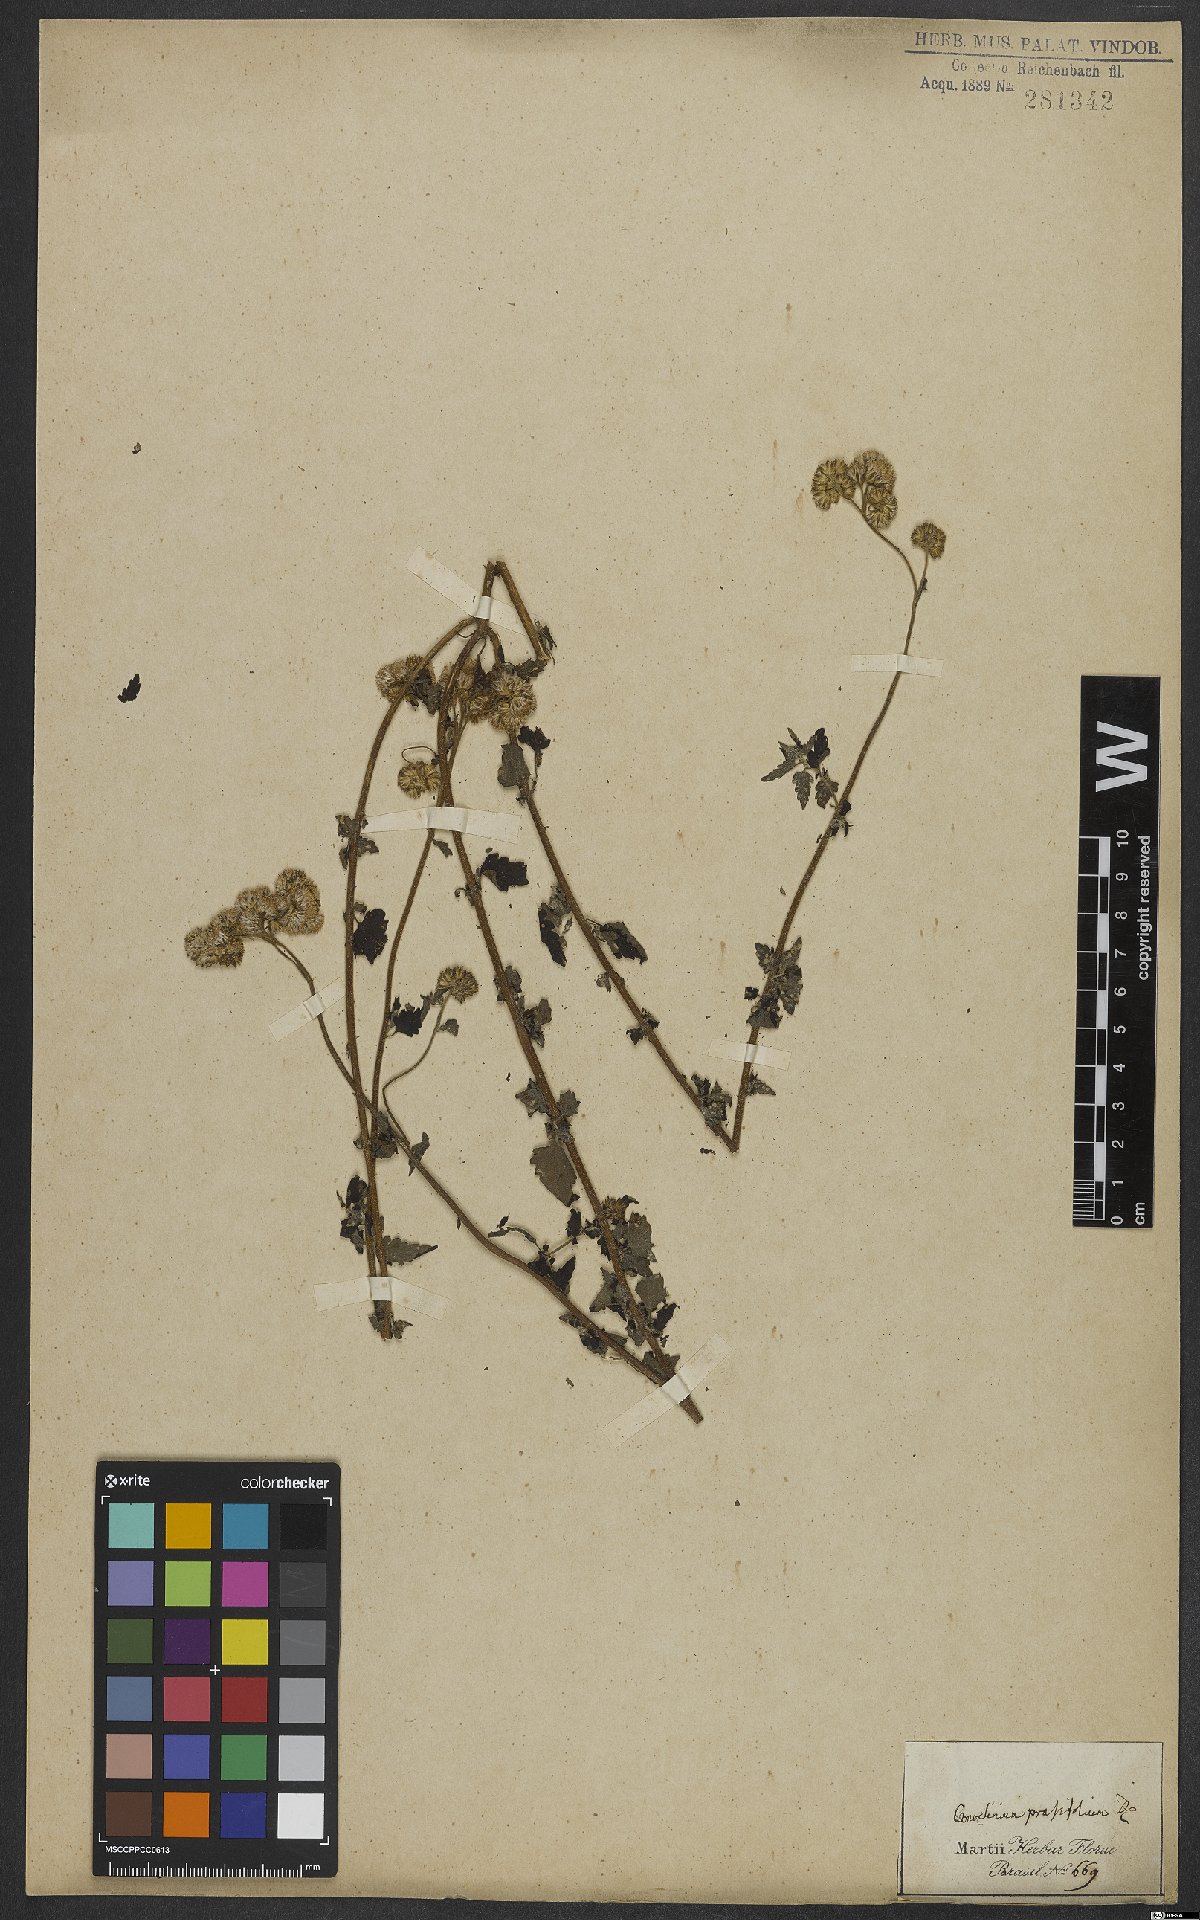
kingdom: Plantae
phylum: Tracheophyta
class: Magnoliopsida
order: Asterales
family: Asteraceae
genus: Conocliniopsis
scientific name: Conocliniopsis grossedentata
